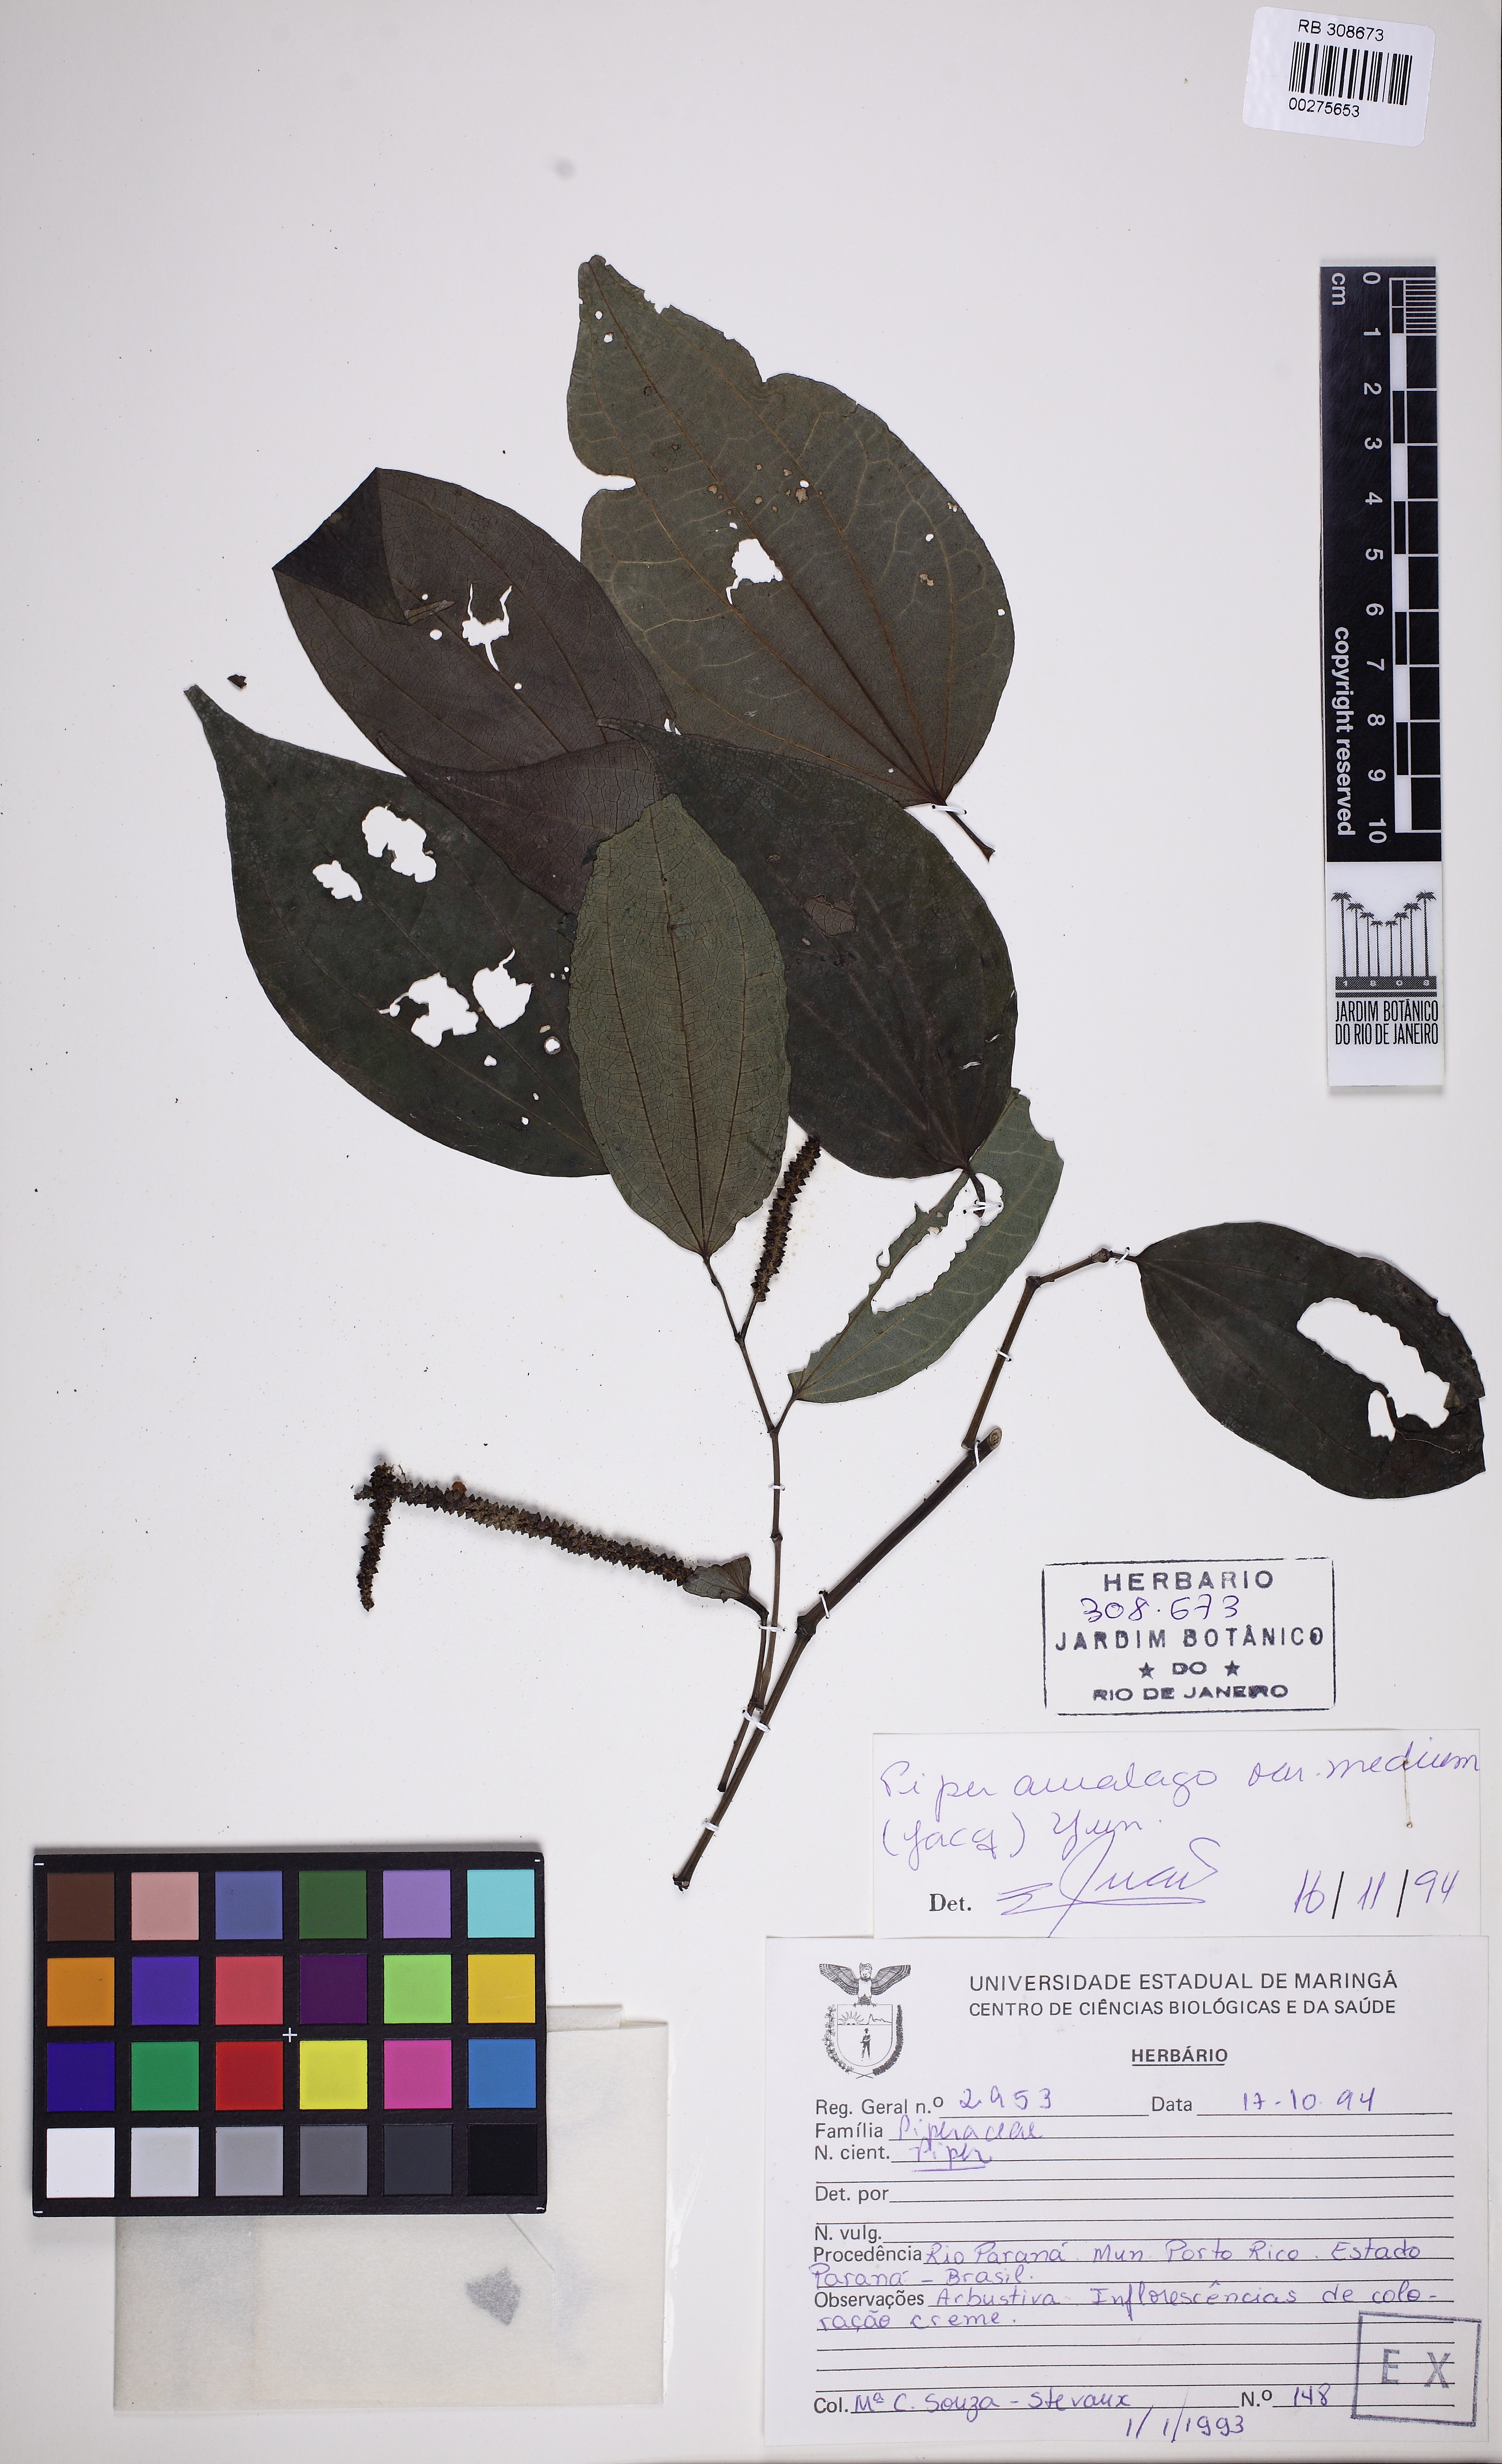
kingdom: Plantae
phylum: Tracheophyta
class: Magnoliopsida
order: Piperales
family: Piperaceae
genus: Piper
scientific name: Piper amalago
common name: Pepper-elder
